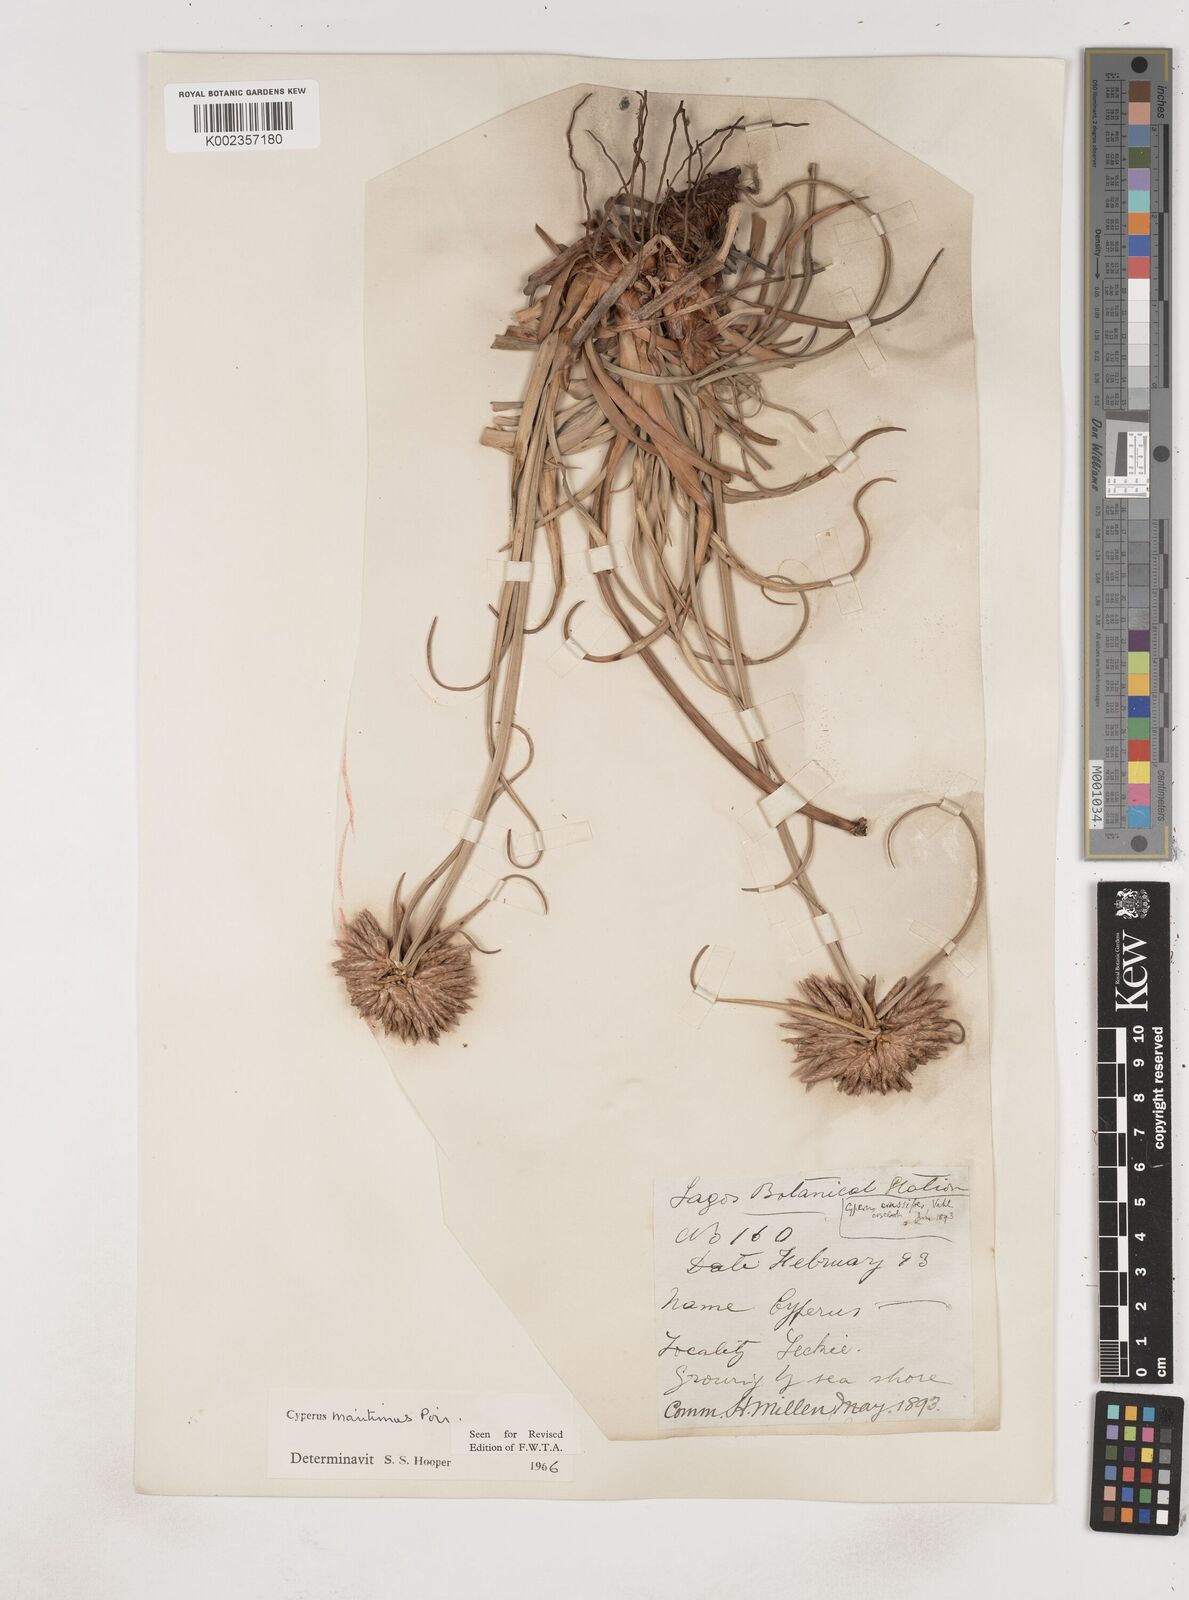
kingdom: Plantae
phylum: Tracheophyta
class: Liliopsida
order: Poales
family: Cyperaceae
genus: Cyperus
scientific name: Cyperus crassipes
